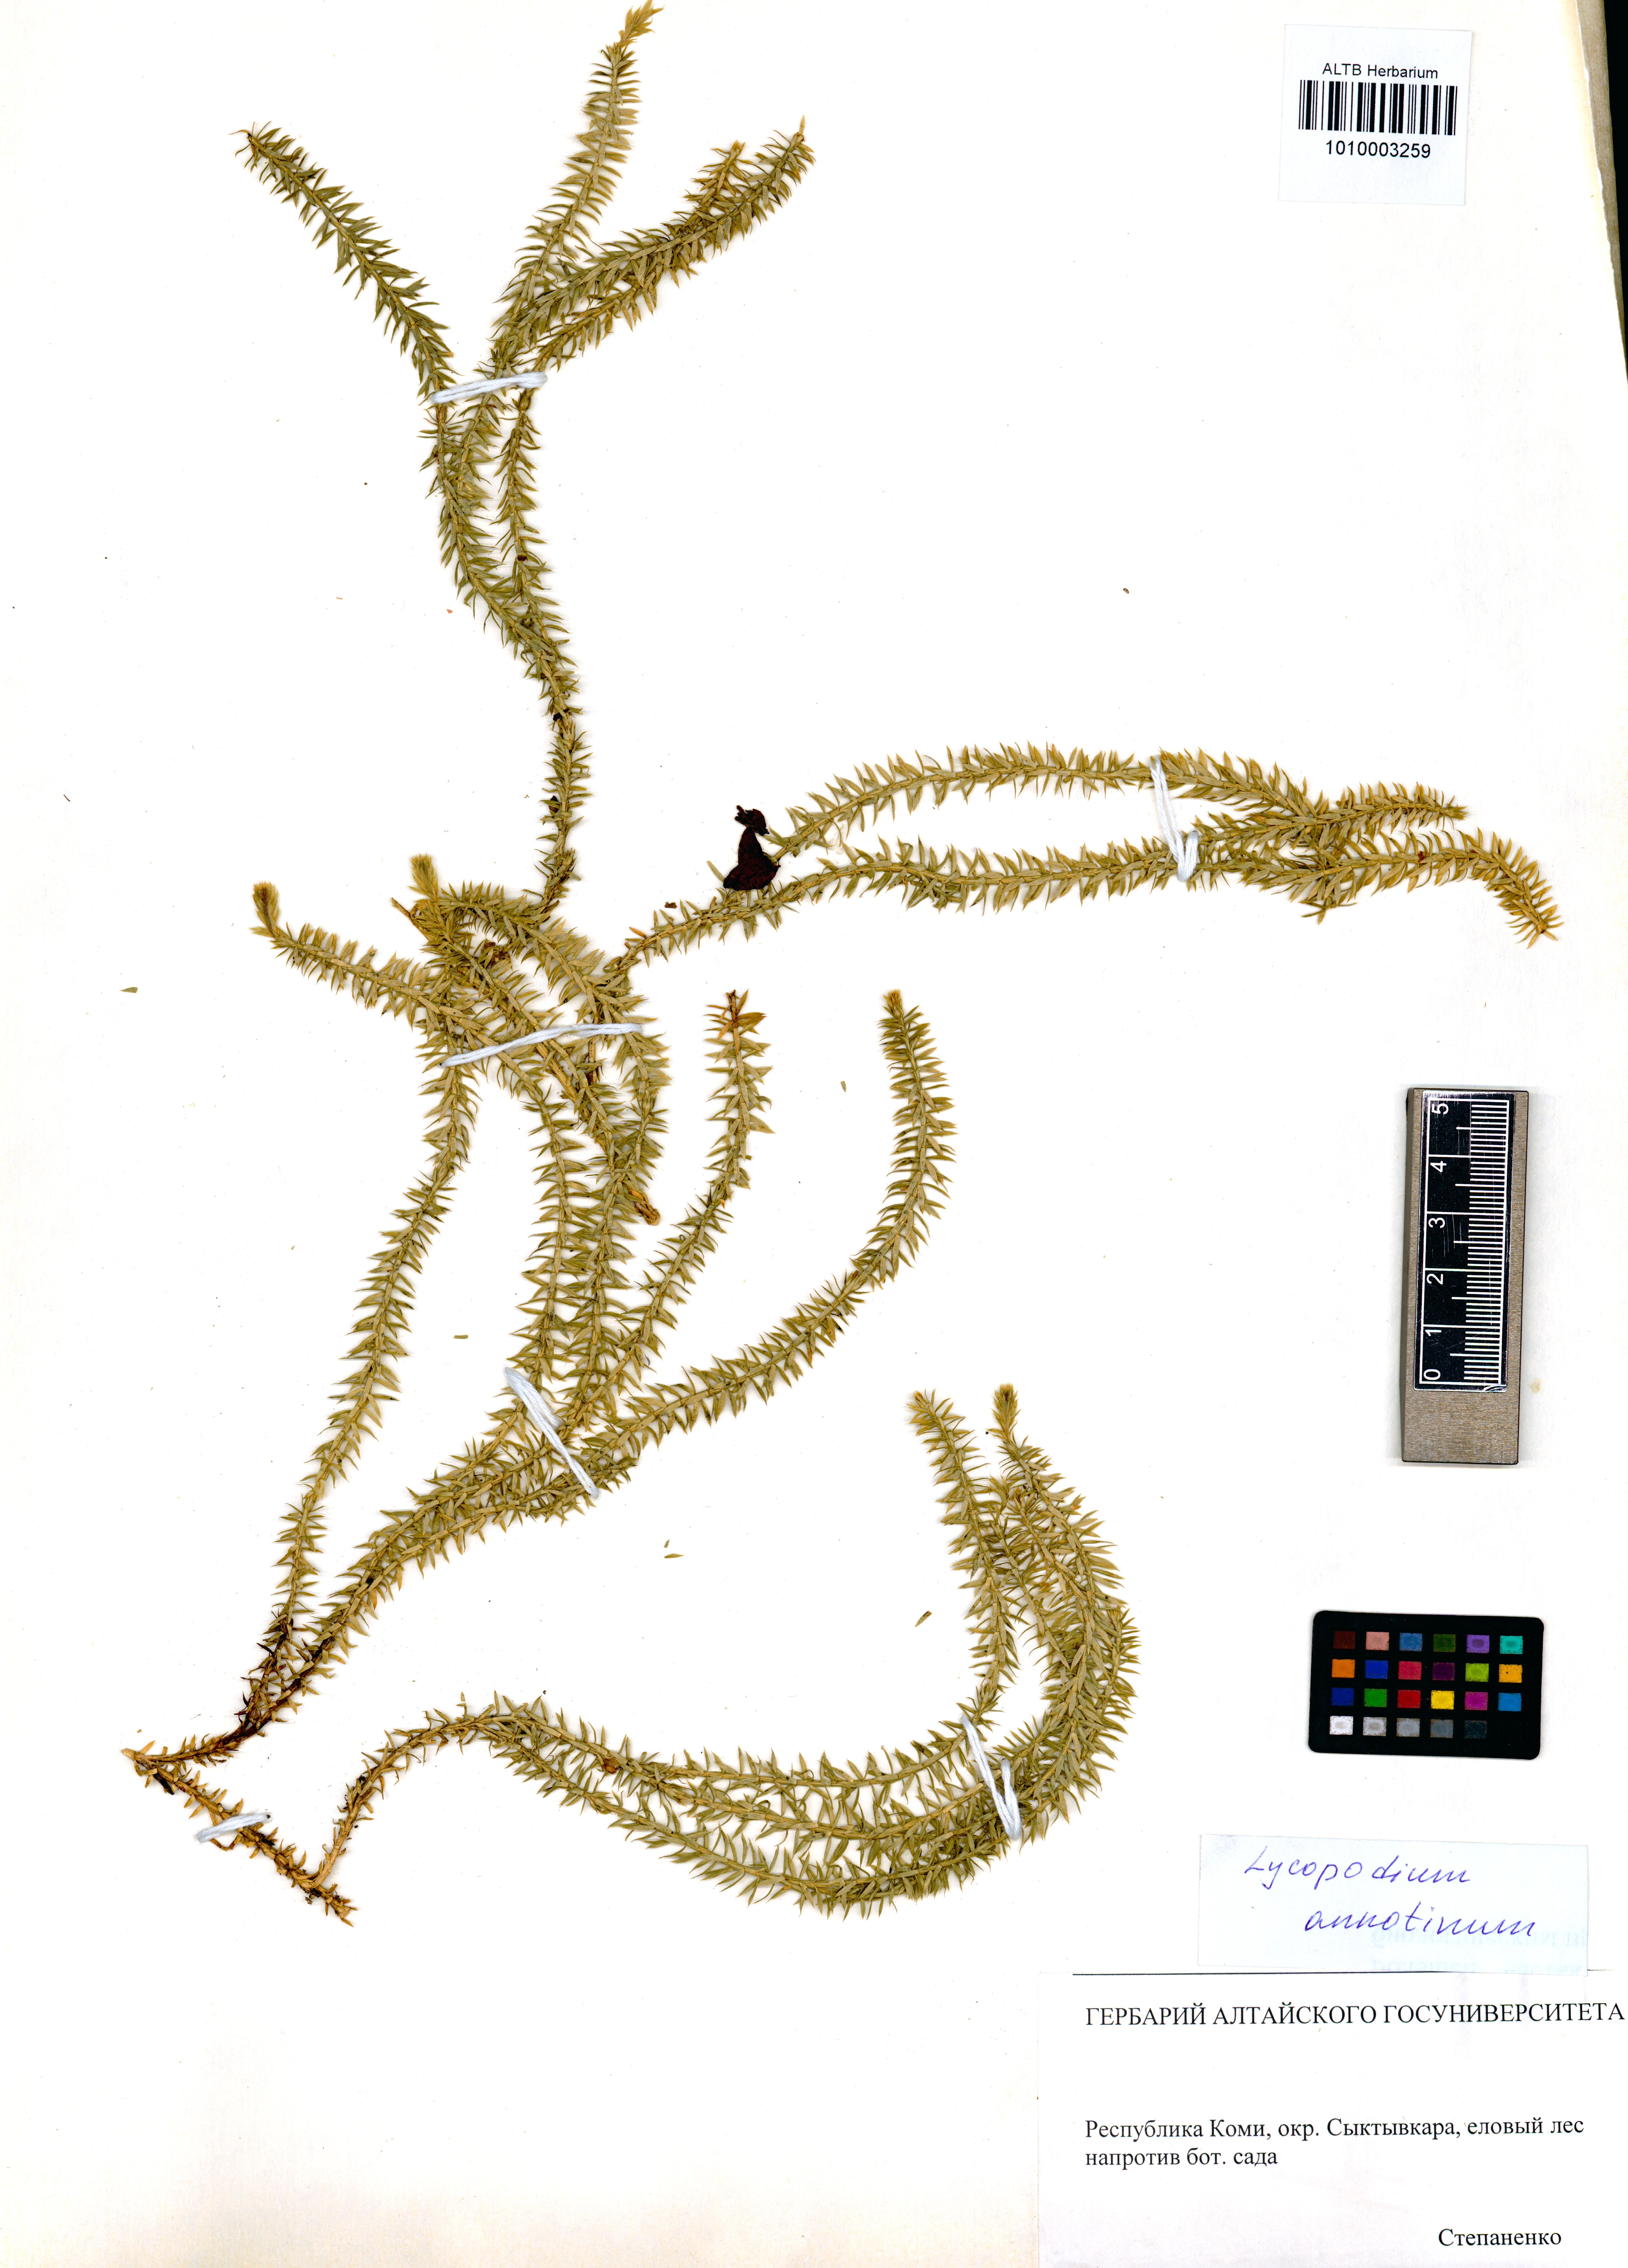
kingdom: Plantae
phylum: Tracheophyta
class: Lycopodiopsida
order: Lycopodiales
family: Lycopodiaceae
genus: Spinulum
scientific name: Spinulum annotinum
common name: Interrupted club-moss
